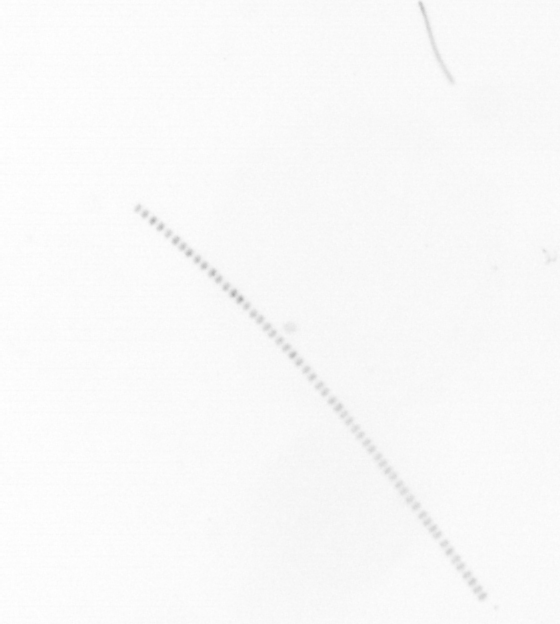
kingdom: Chromista
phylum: Ochrophyta
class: Bacillariophyceae
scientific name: Bacillariophyceae
